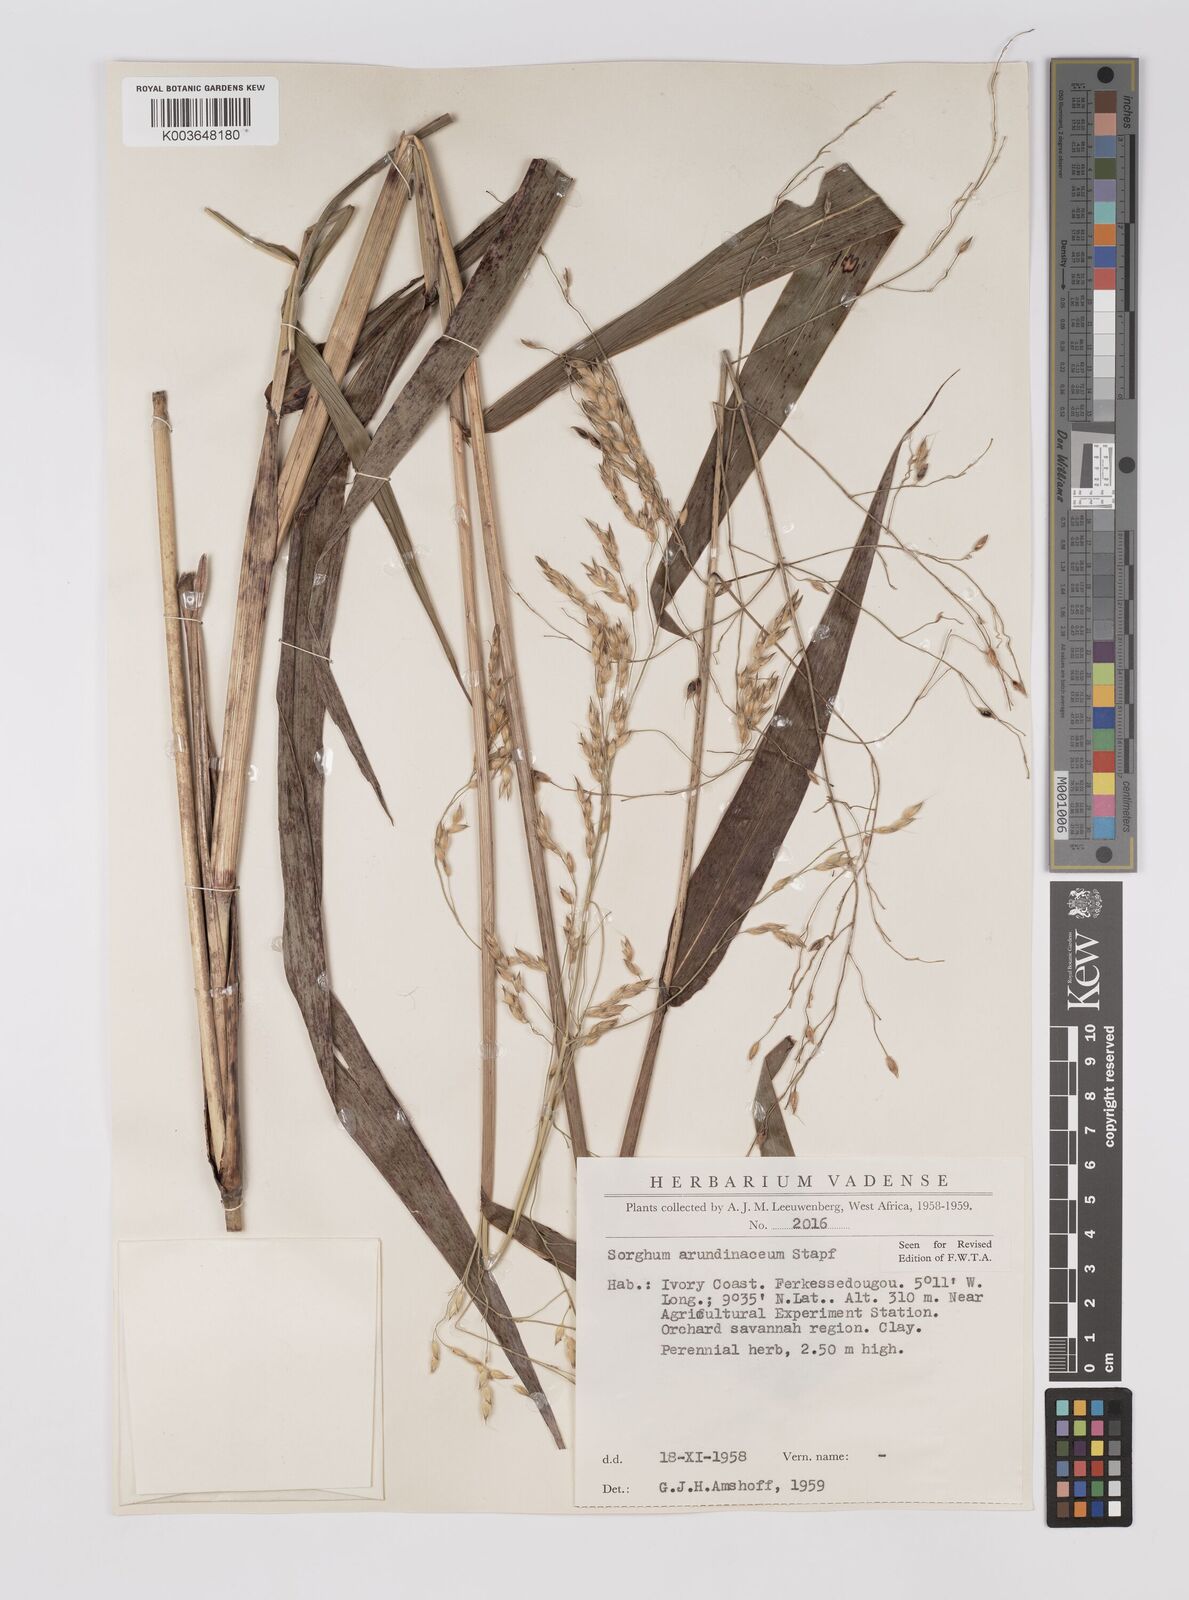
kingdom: Plantae
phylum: Tracheophyta
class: Liliopsida
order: Poales
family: Poaceae
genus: Sorghum
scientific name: Sorghum arundinaceum
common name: Sorghum
